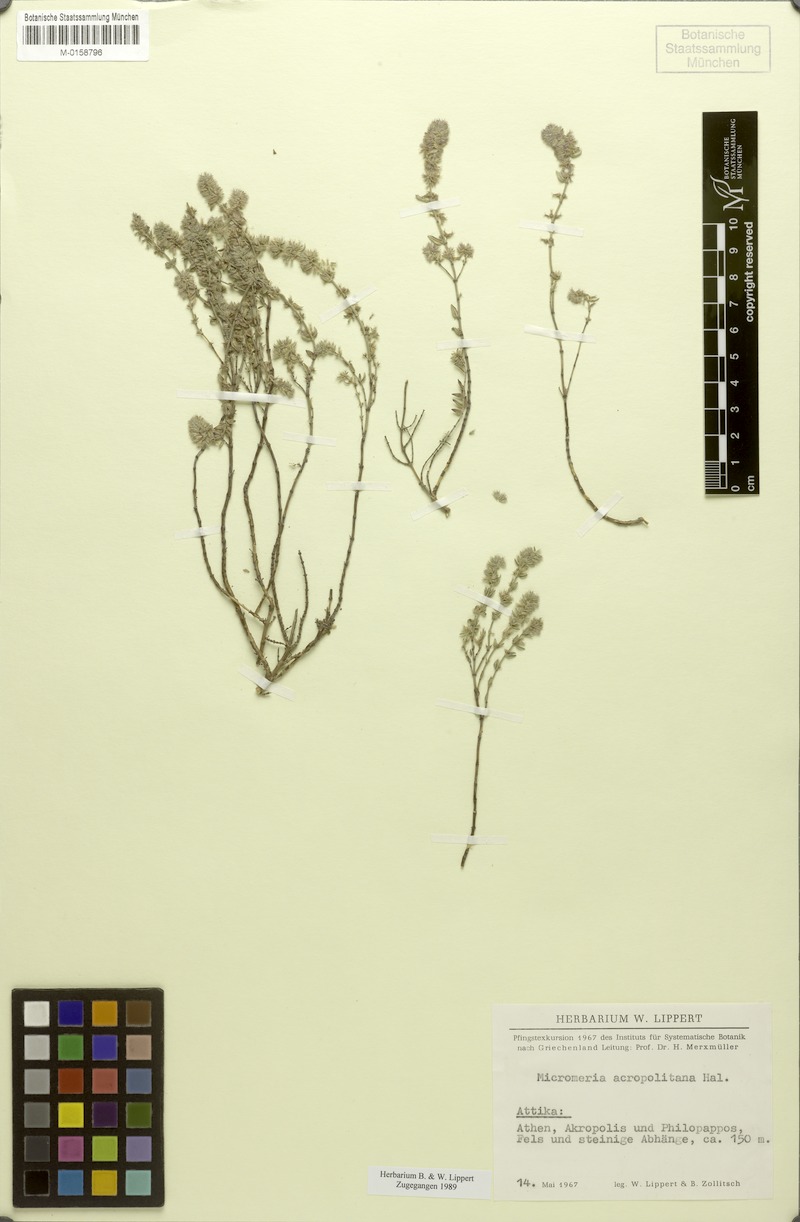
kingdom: Plantae
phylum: Tracheophyta
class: Magnoliopsida
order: Lamiales
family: Lamiaceae
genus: Micromeria
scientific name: Micromeria acropolitana
